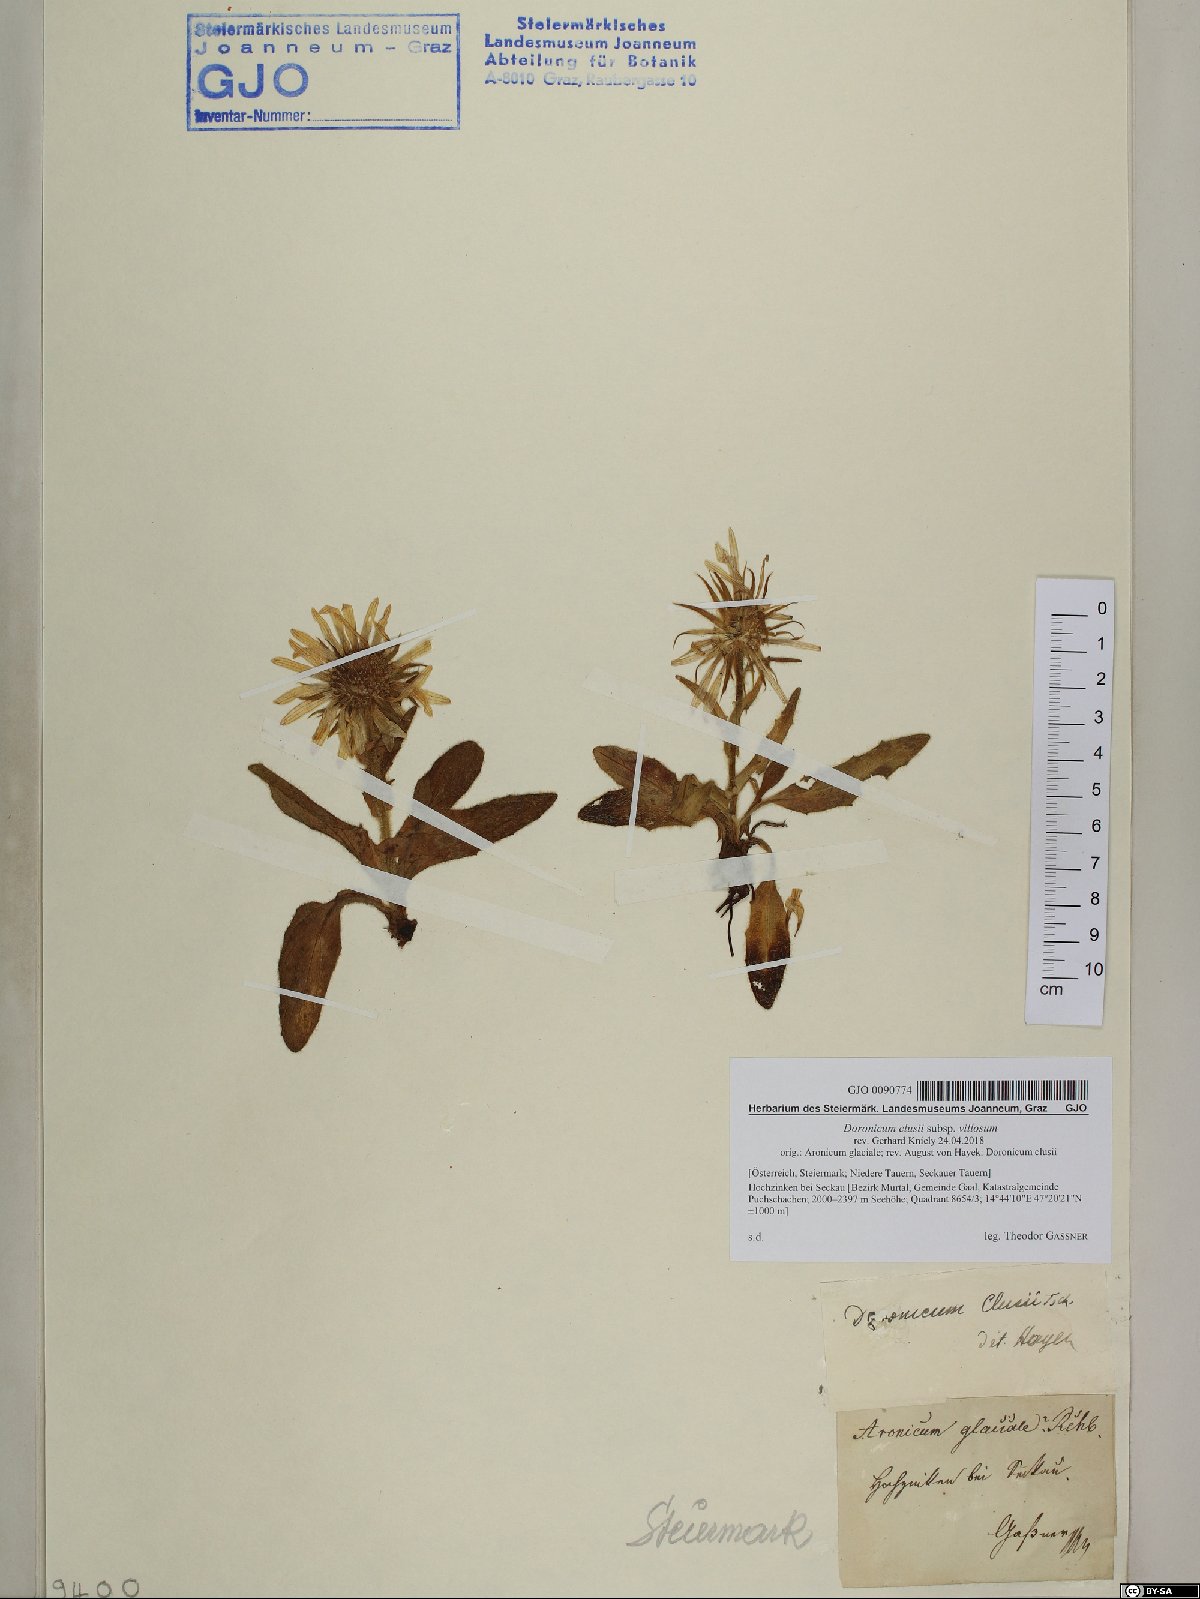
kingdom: Plantae
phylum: Tracheophyta
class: Magnoliopsida
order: Asterales
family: Asteraceae
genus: Doronicum
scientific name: Doronicum clusii
